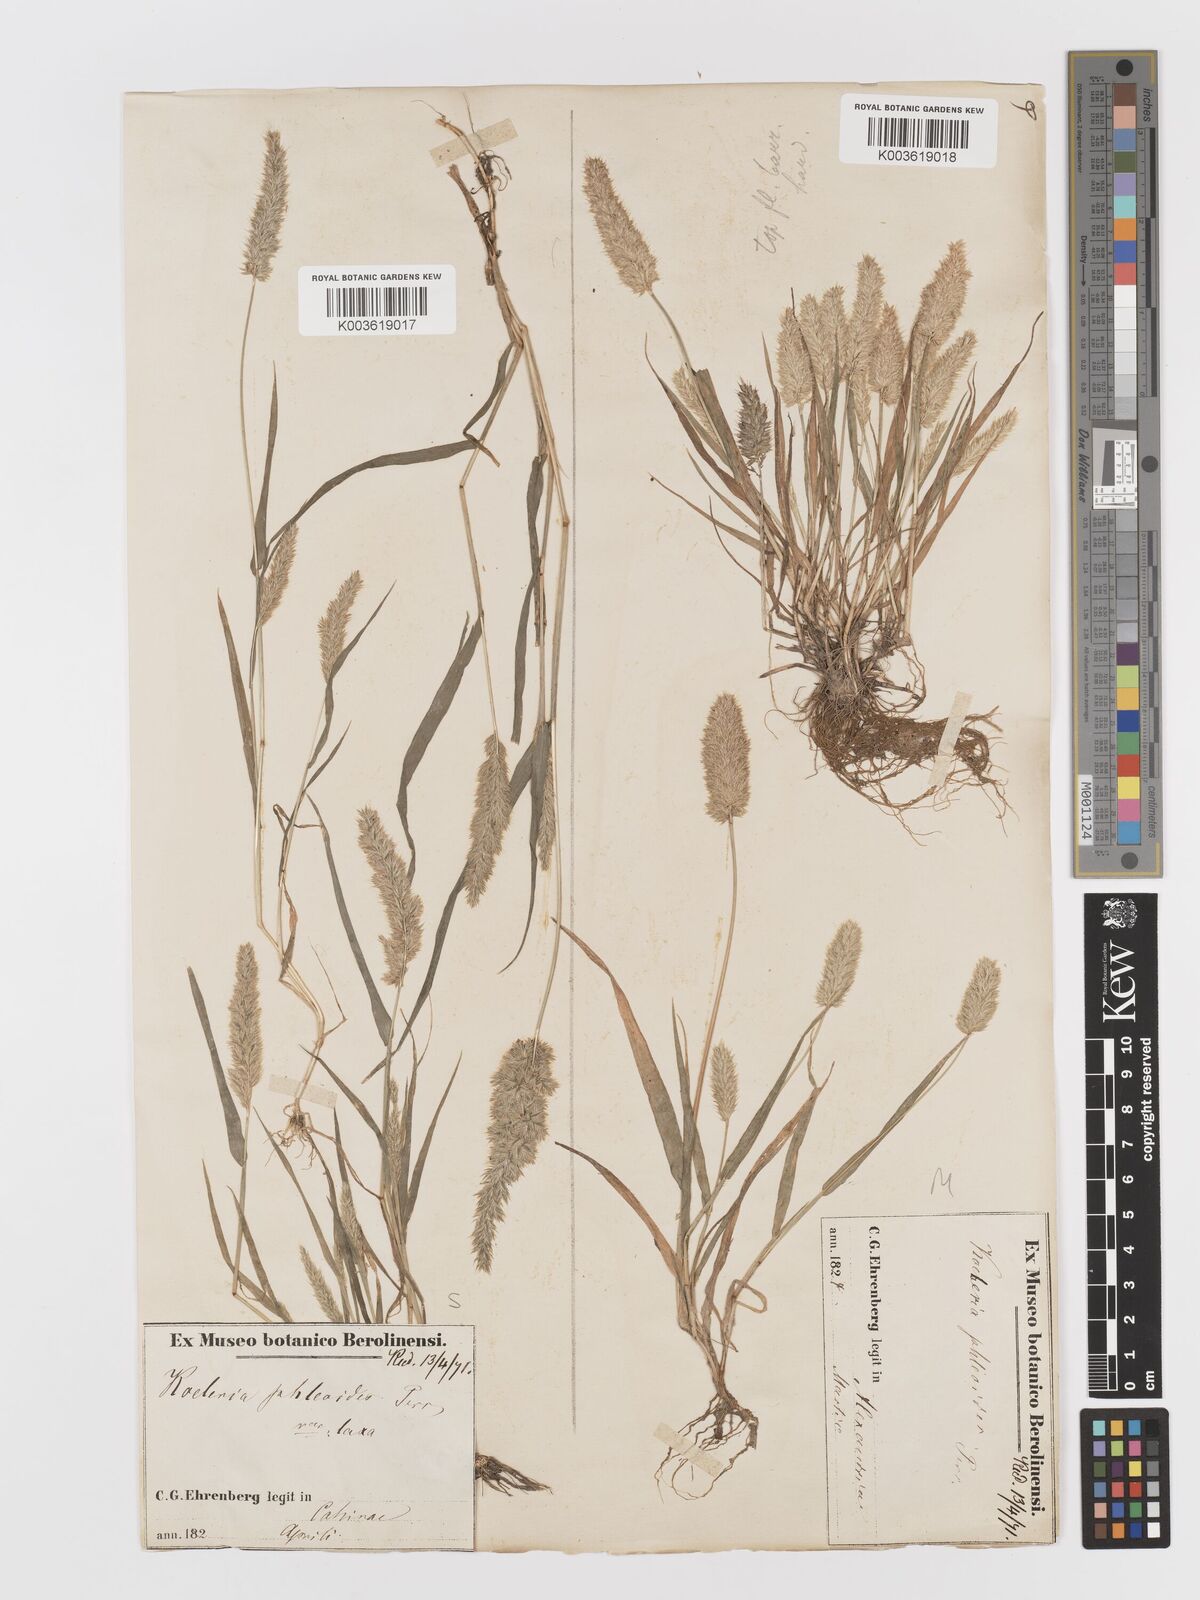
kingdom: Plantae
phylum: Tracheophyta
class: Liliopsida
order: Poales
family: Poaceae
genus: Rostraria
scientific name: Rostraria cristata
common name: Mediterranean hair-grass
